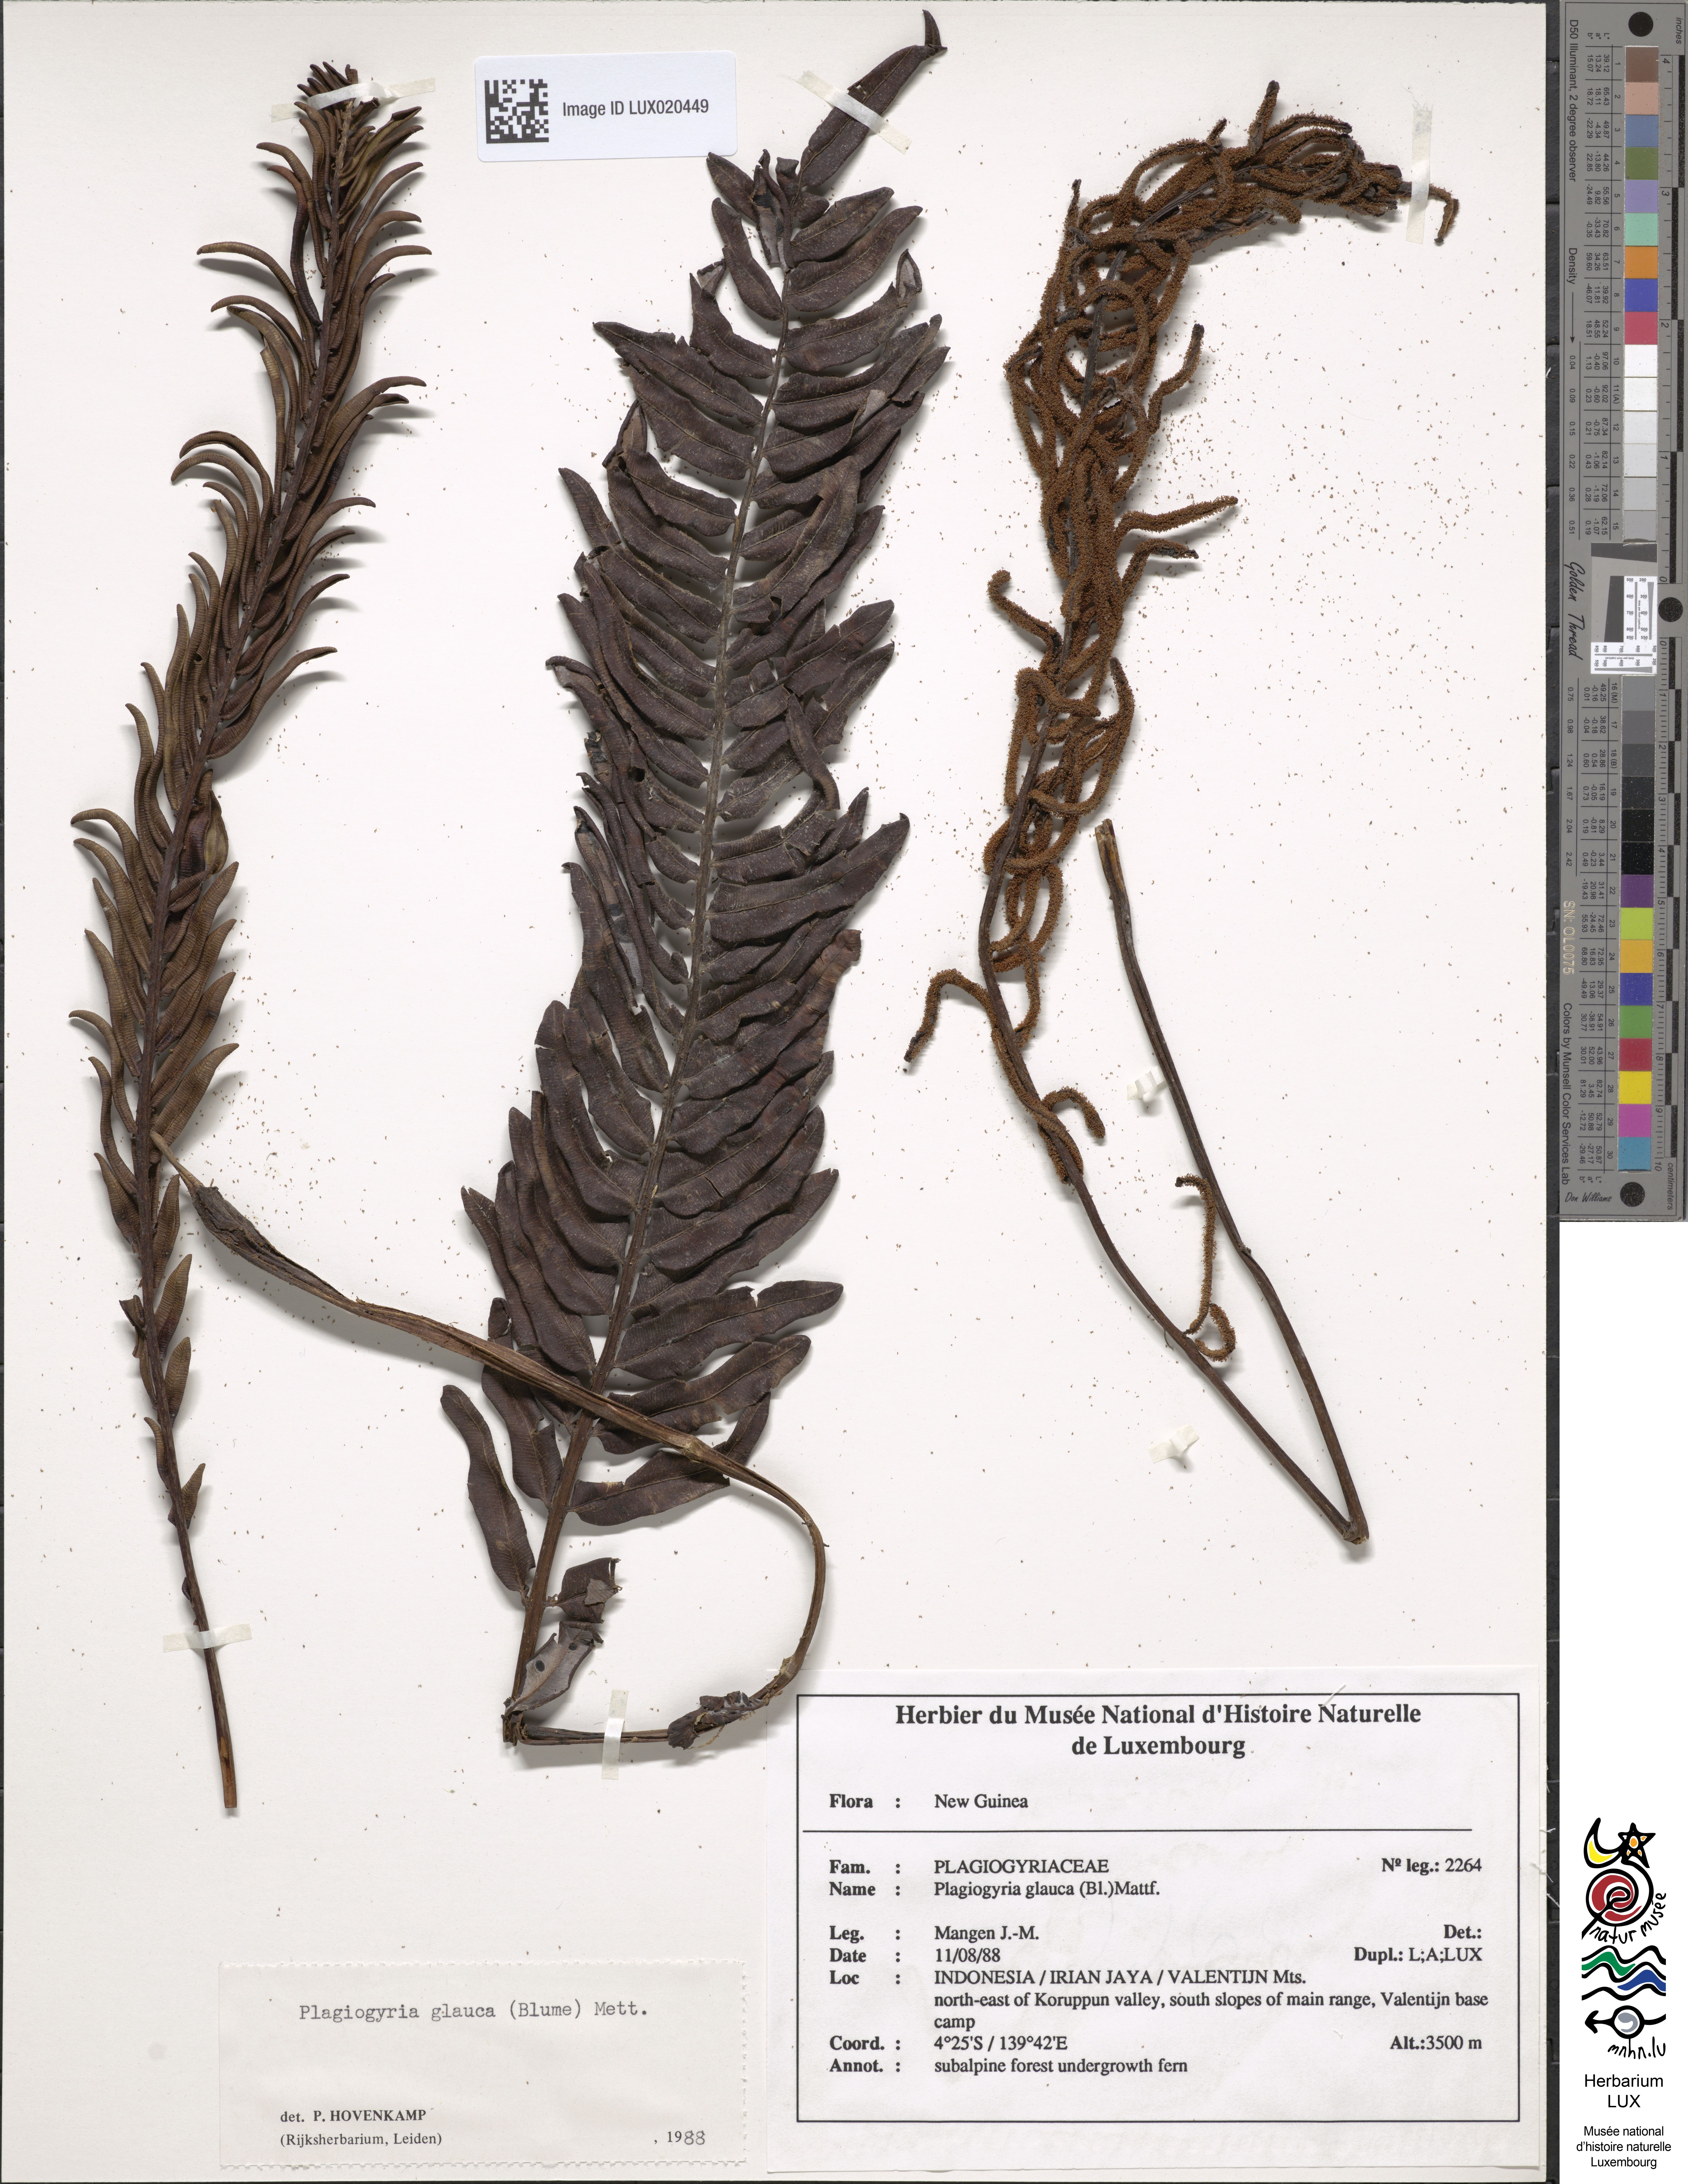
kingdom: Plantae
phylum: Tracheophyta
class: Polypodiopsida
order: Cyatheales
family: Plagiogyriaceae
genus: Plagiogyria
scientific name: Plagiogyria glauca
